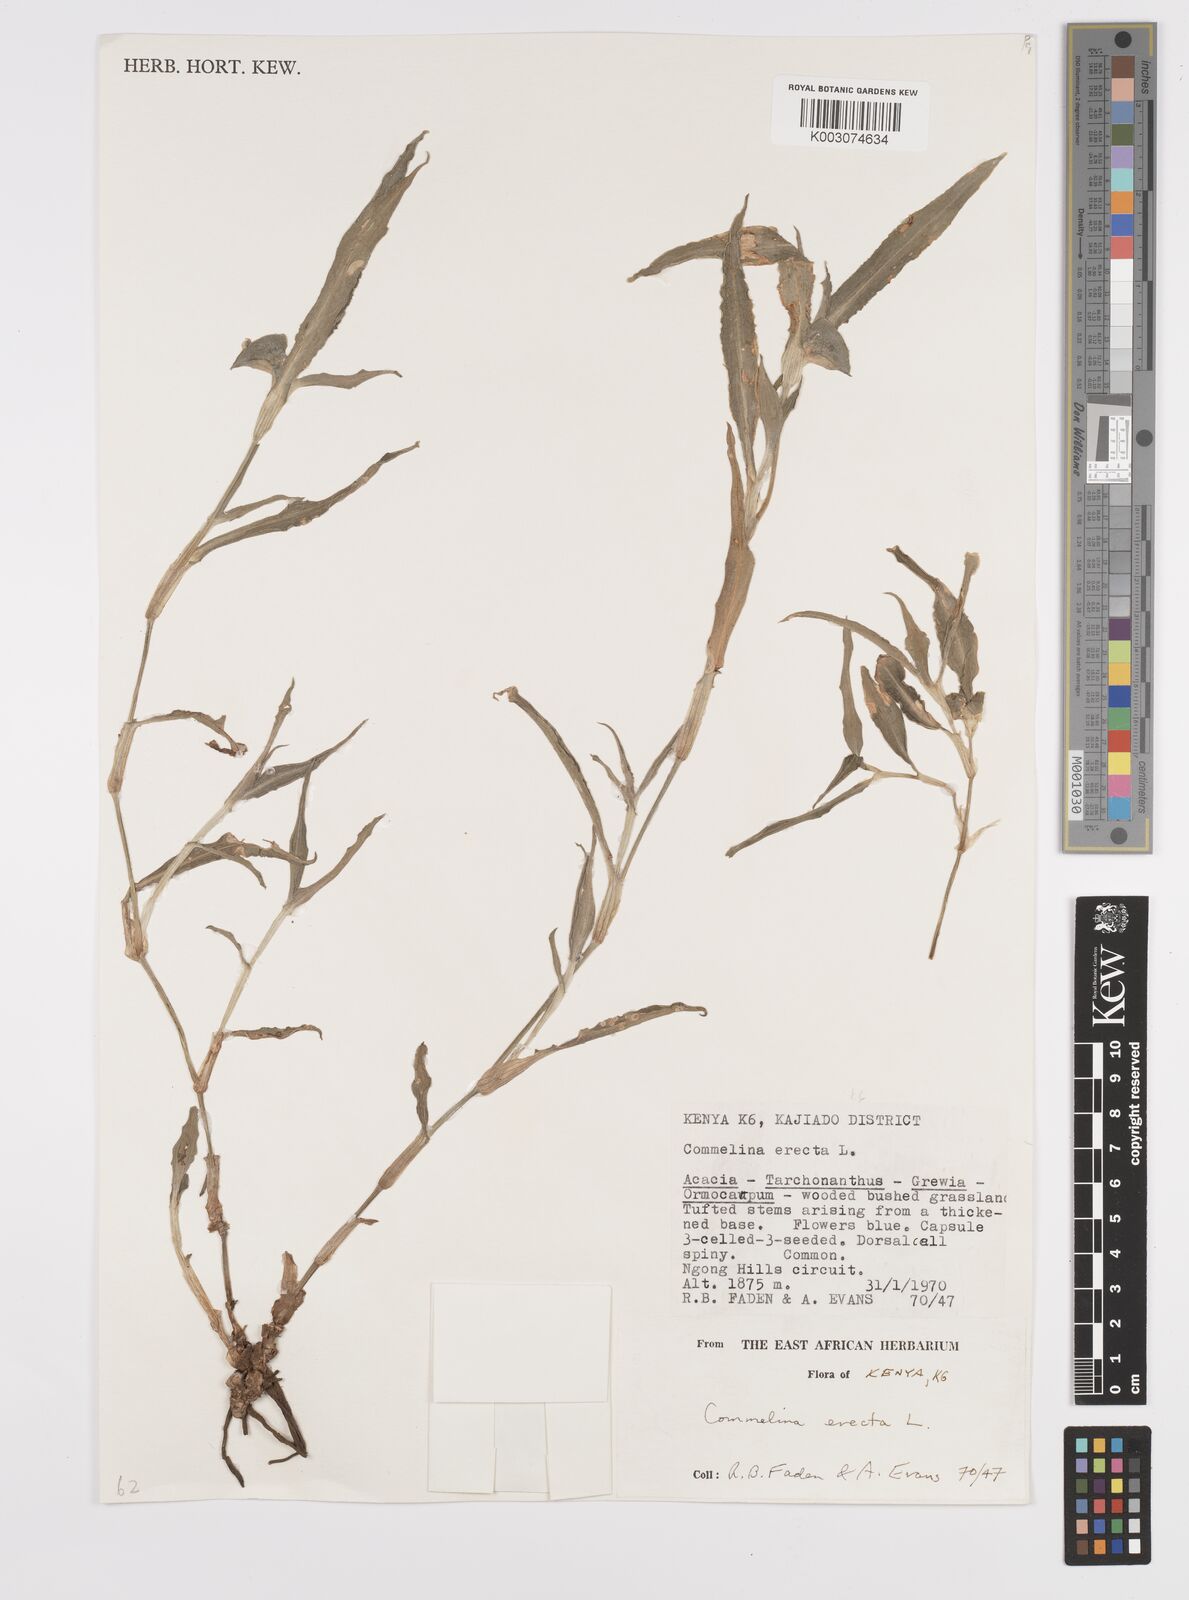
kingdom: Plantae
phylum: Tracheophyta
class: Liliopsida
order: Commelinales
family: Commelinaceae
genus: Commelina
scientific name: Commelina erecta
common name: Blousel blommetjie
